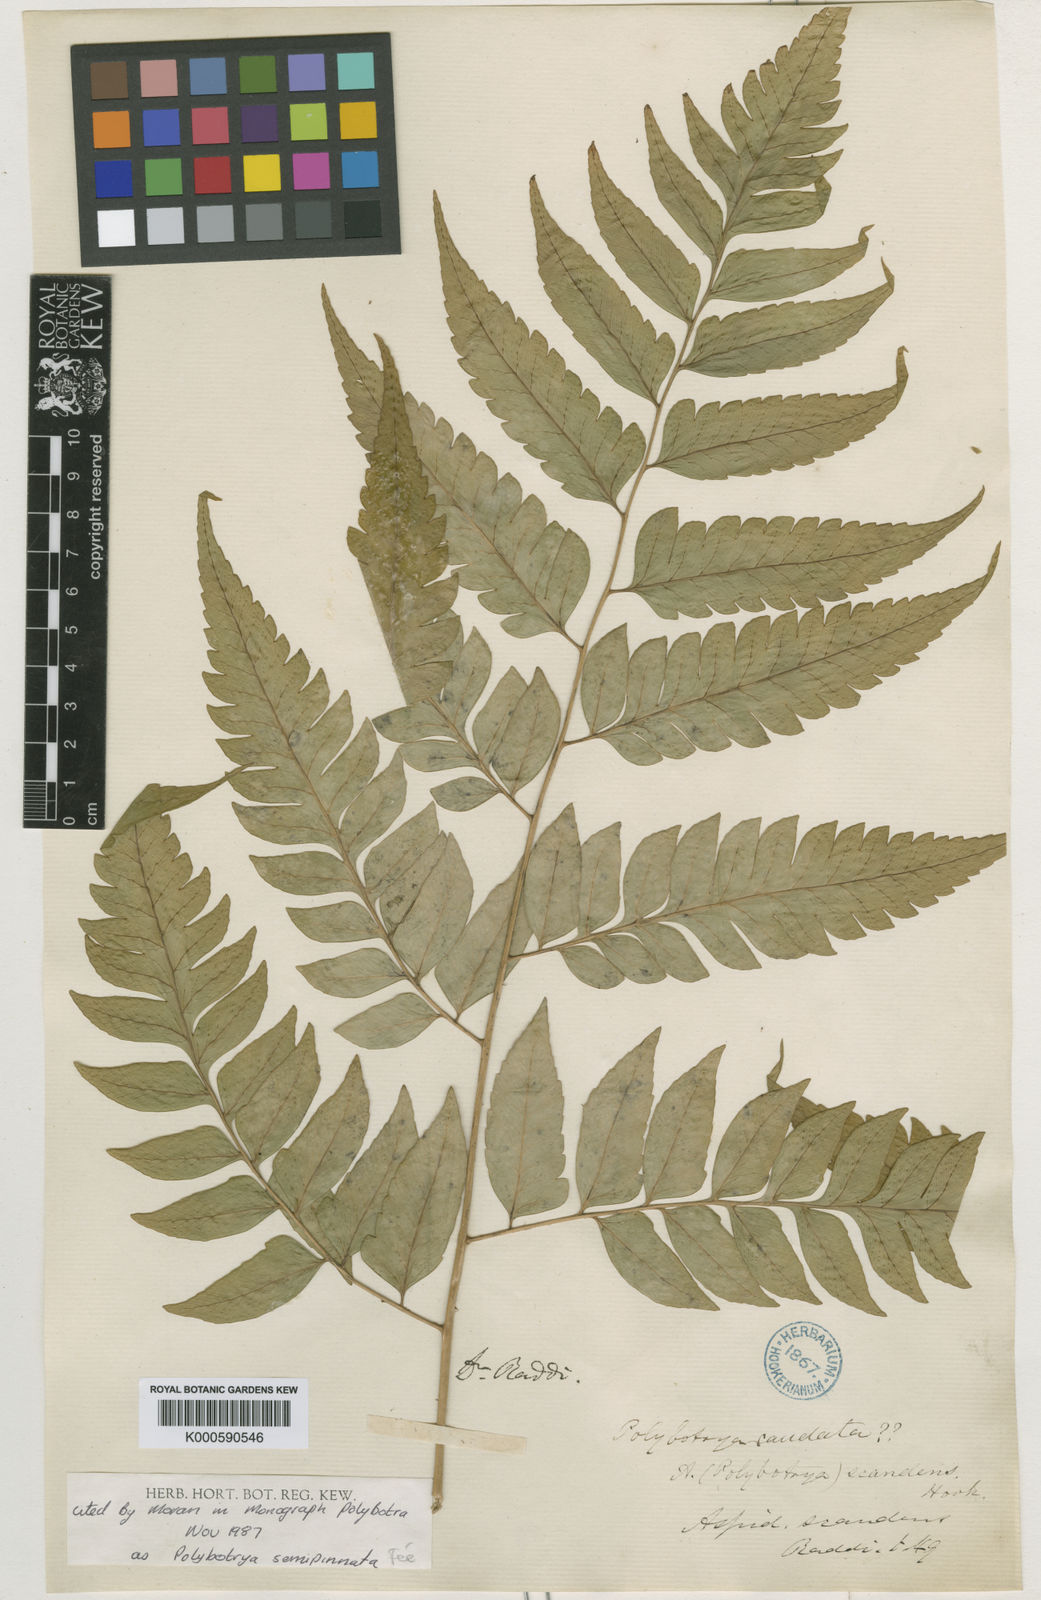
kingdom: Plantae
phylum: Tracheophyta
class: Polypodiopsida
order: Polypodiales
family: Dryopteridaceae
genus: Polybotrya
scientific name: Polybotrya caudata
